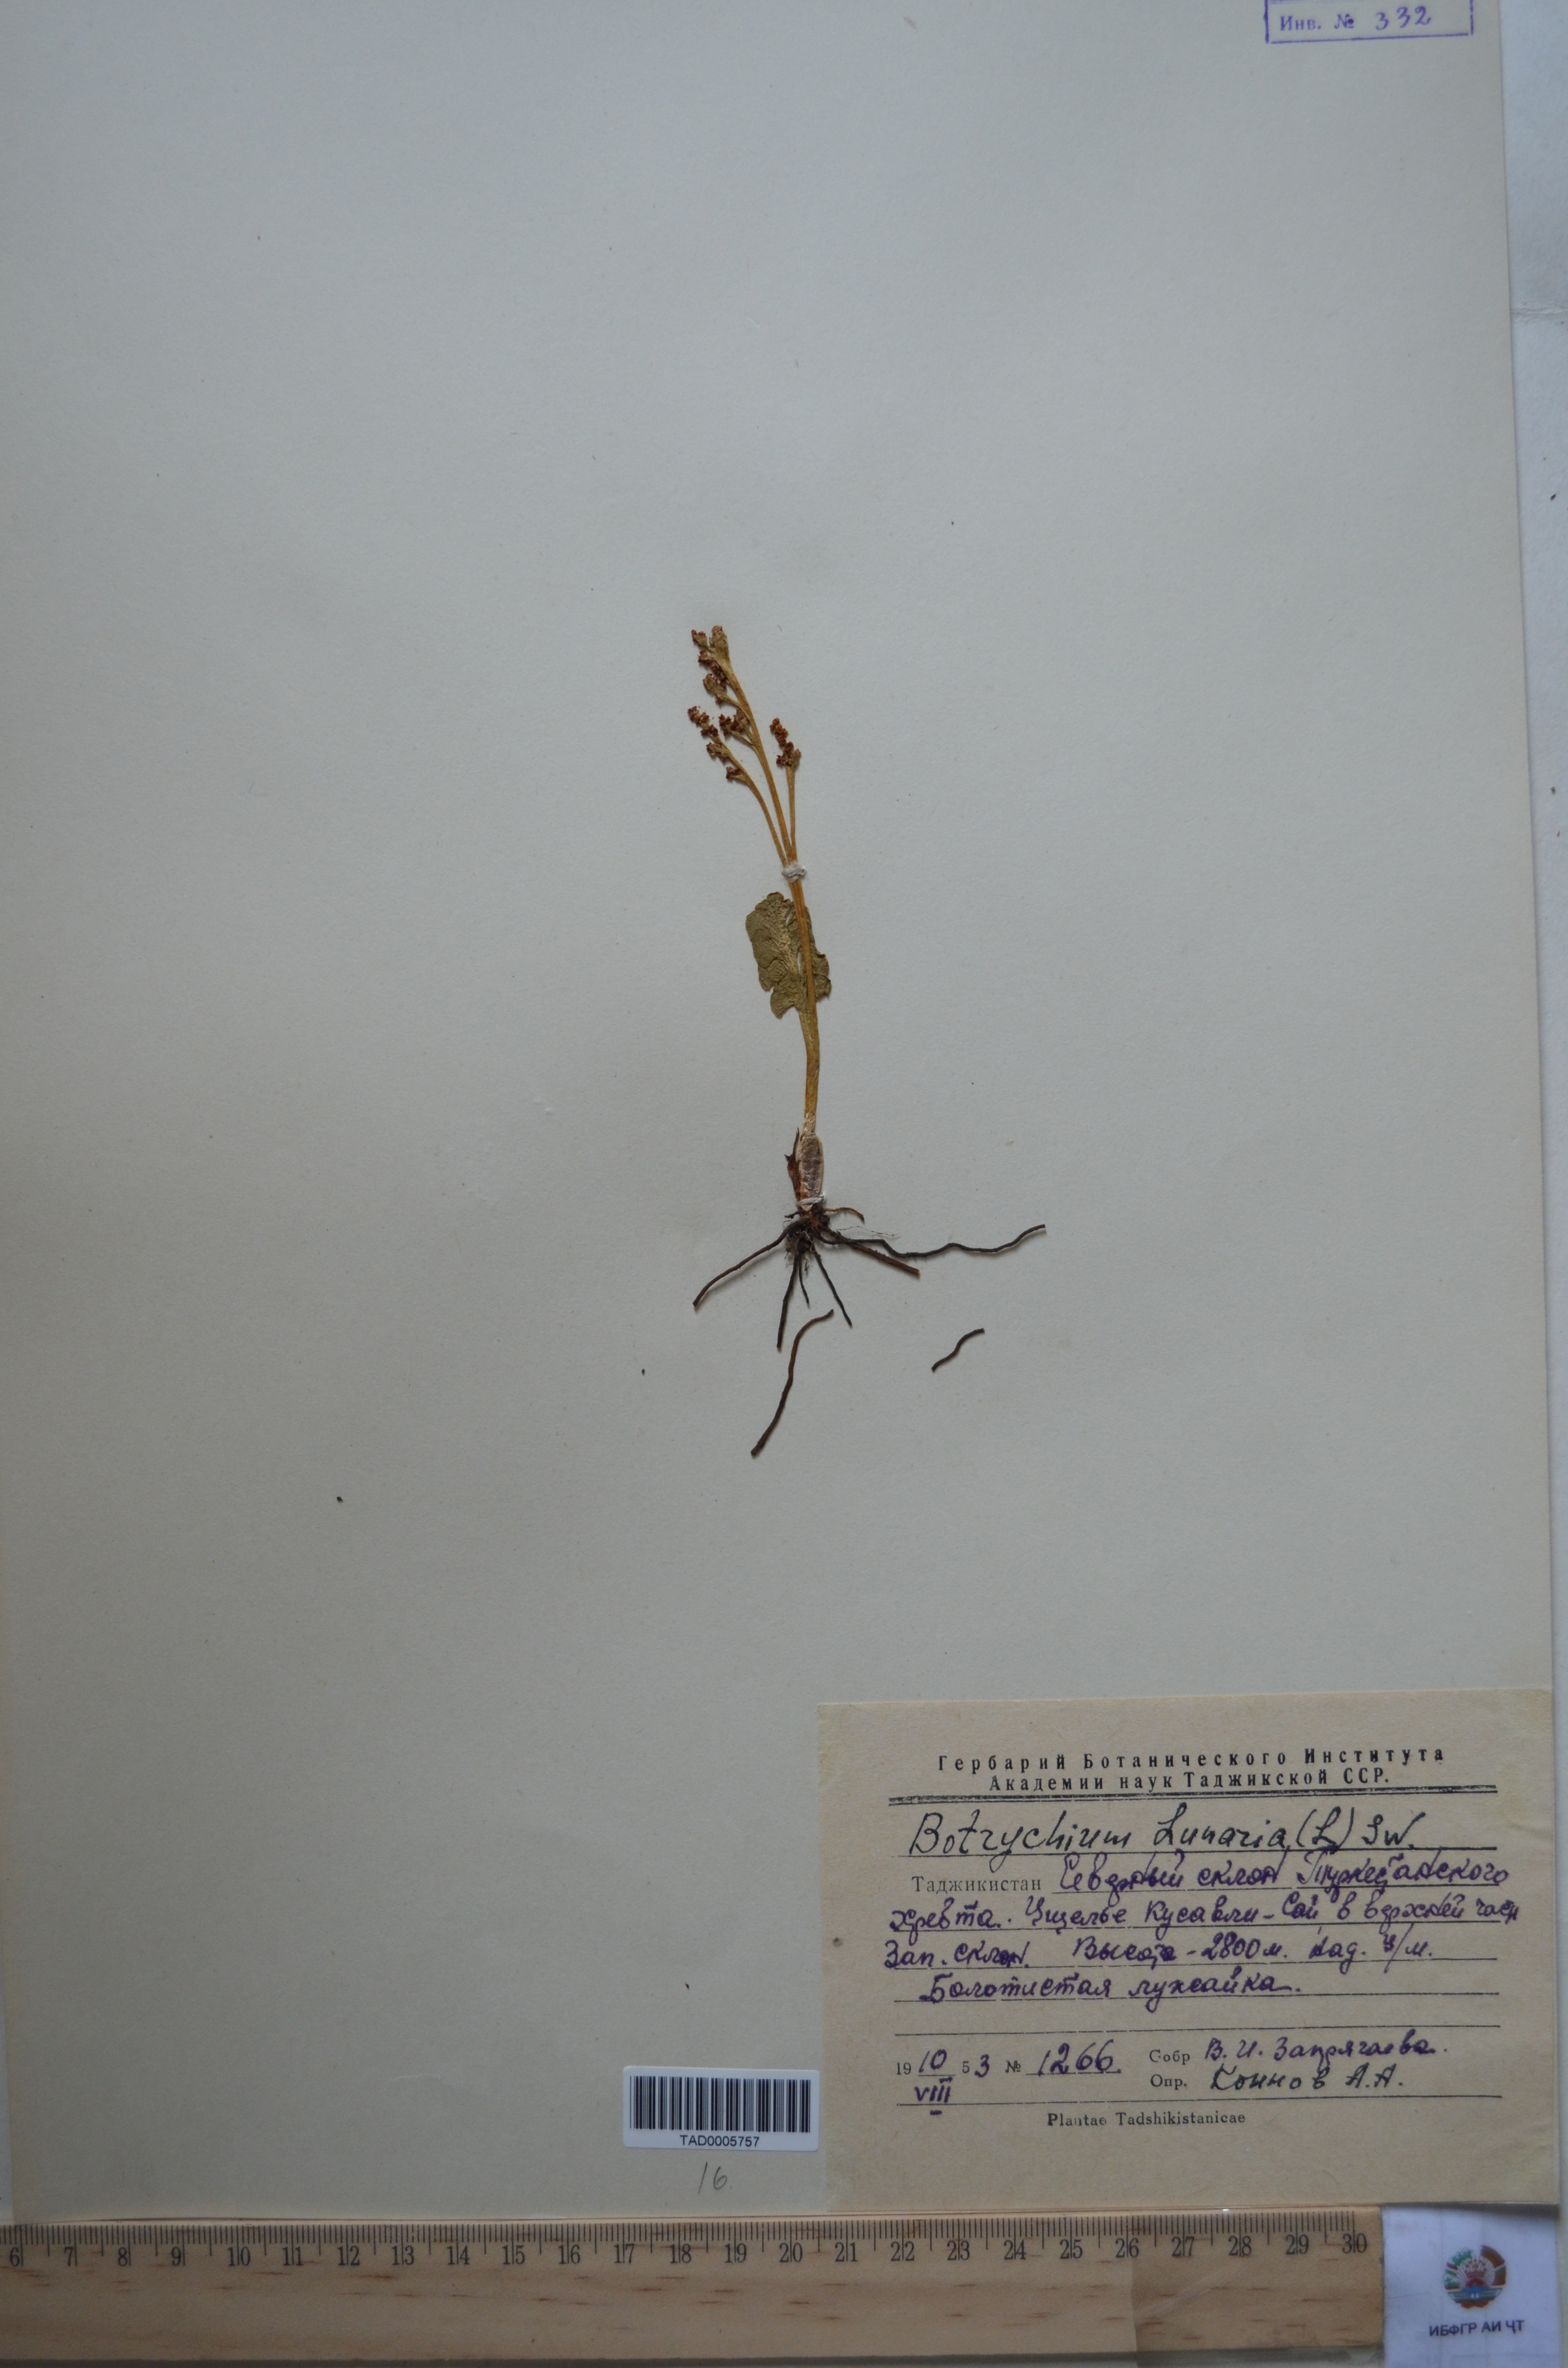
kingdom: Plantae
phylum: Tracheophyta
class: Polypodiopsida
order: Ophioglossales
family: Ophioglossaceae
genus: Botrychium
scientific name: Botrychium lunaria
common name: Moonwort
